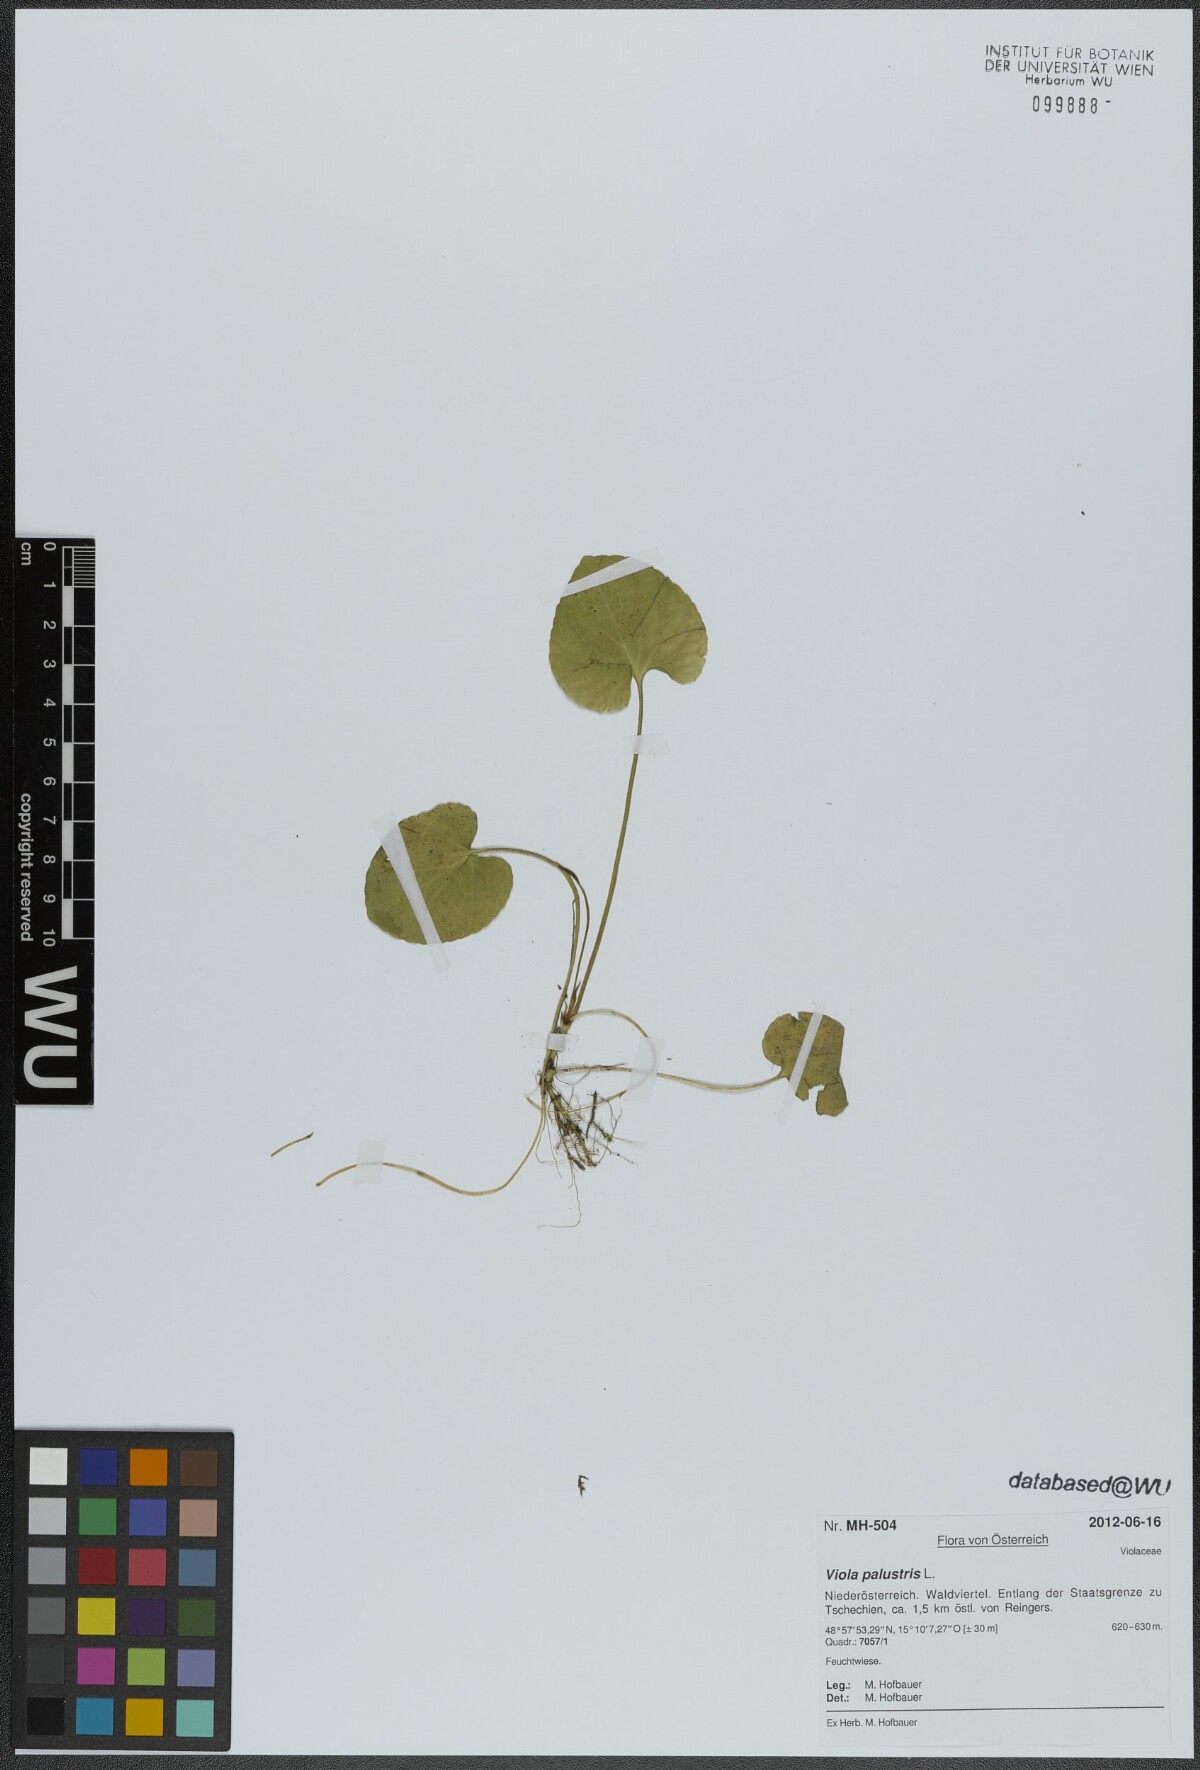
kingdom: Plantae
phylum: Tracheophyta
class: Magnoliopsida
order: Malpighiales
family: Violaceae
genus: Viola
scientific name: Viola palustris
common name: Marsh violet
